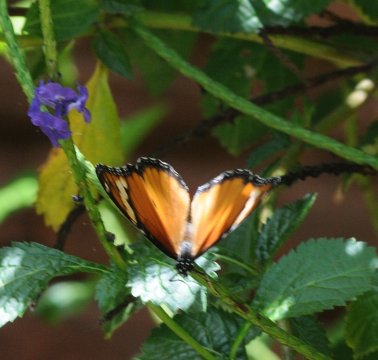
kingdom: Animalia
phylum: Arthropoda
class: Insecta
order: Lepidoptera
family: Nymphalidae
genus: Hypolimnas
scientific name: Hypolimnas misippus
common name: Mimic
